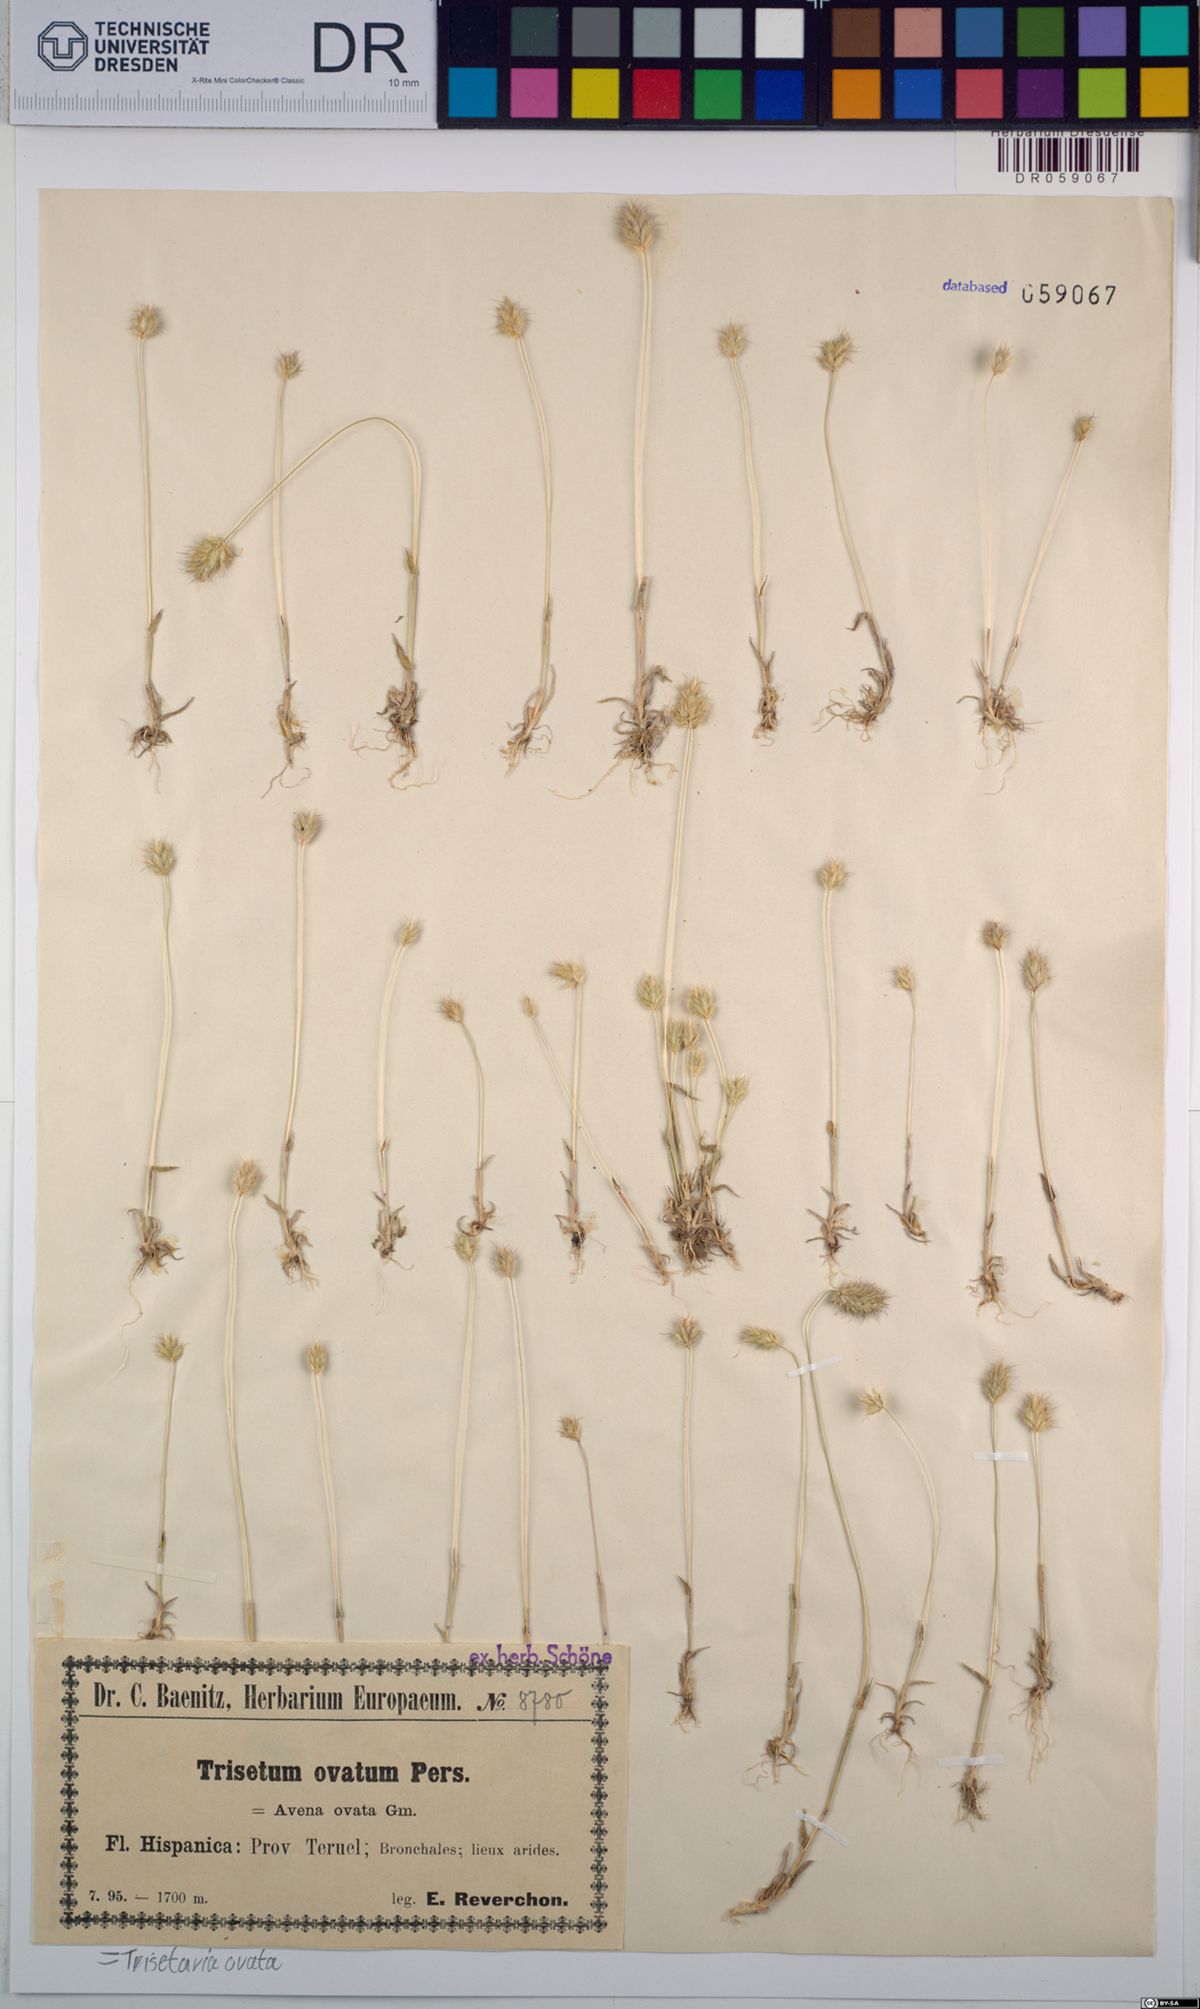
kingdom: Plantae
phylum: Tracheophyta
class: Liliopsida
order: Poales
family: Poaceae
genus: Trisetaria
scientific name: Trisetaria ovata
